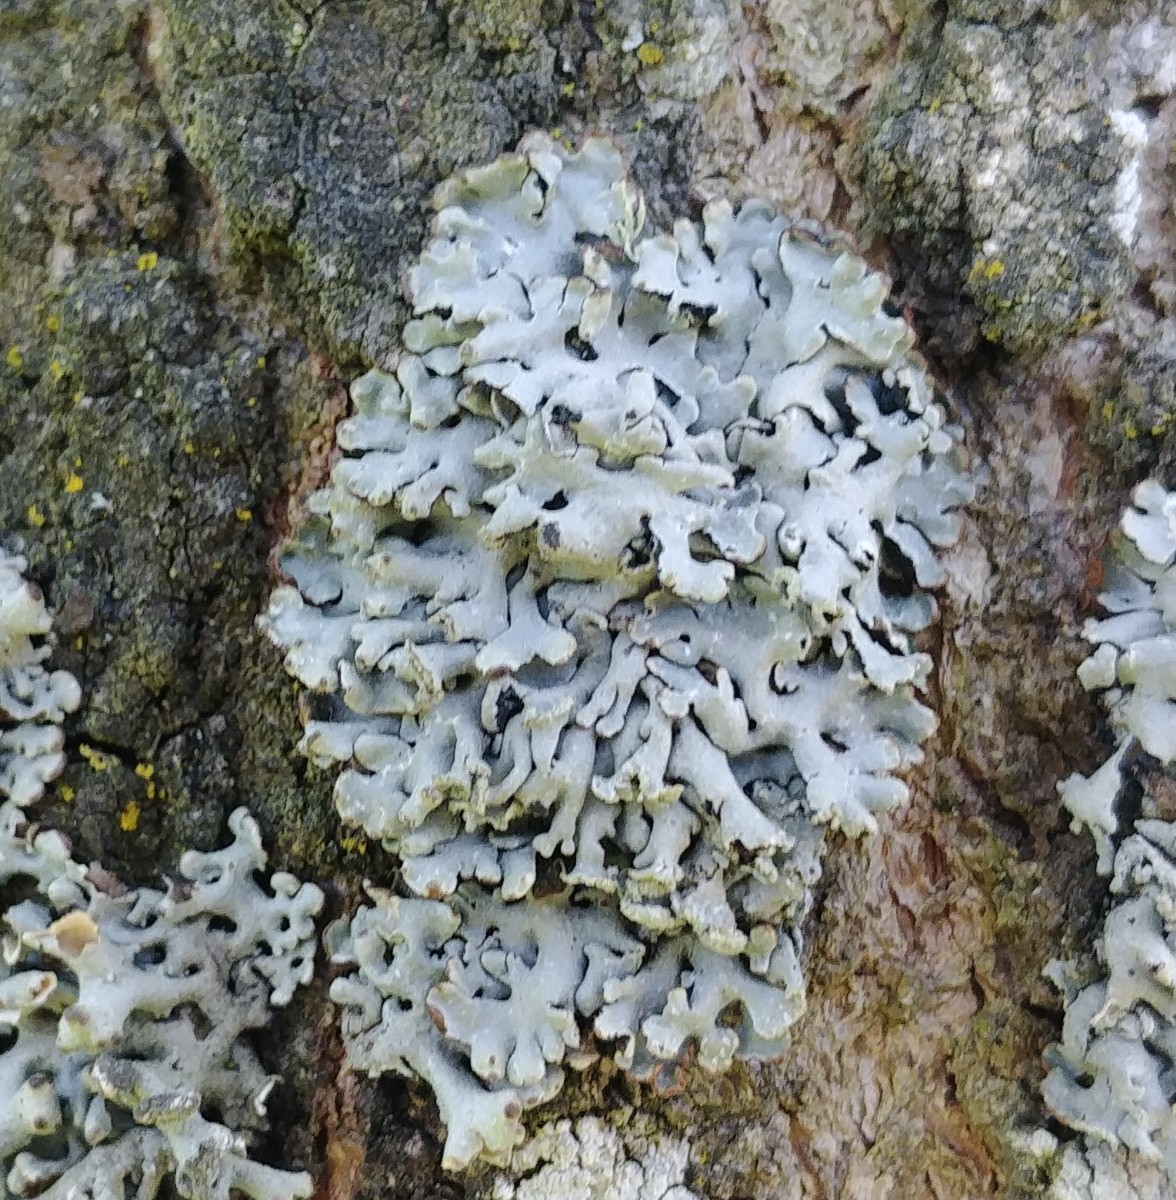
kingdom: Fungi
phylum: Ascomycota
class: Lecanoromycetes
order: Lecanorales
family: Parmeliaceae
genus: Hypogymnia
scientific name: Hypogymnia physodes
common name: almindelig kvistlav
